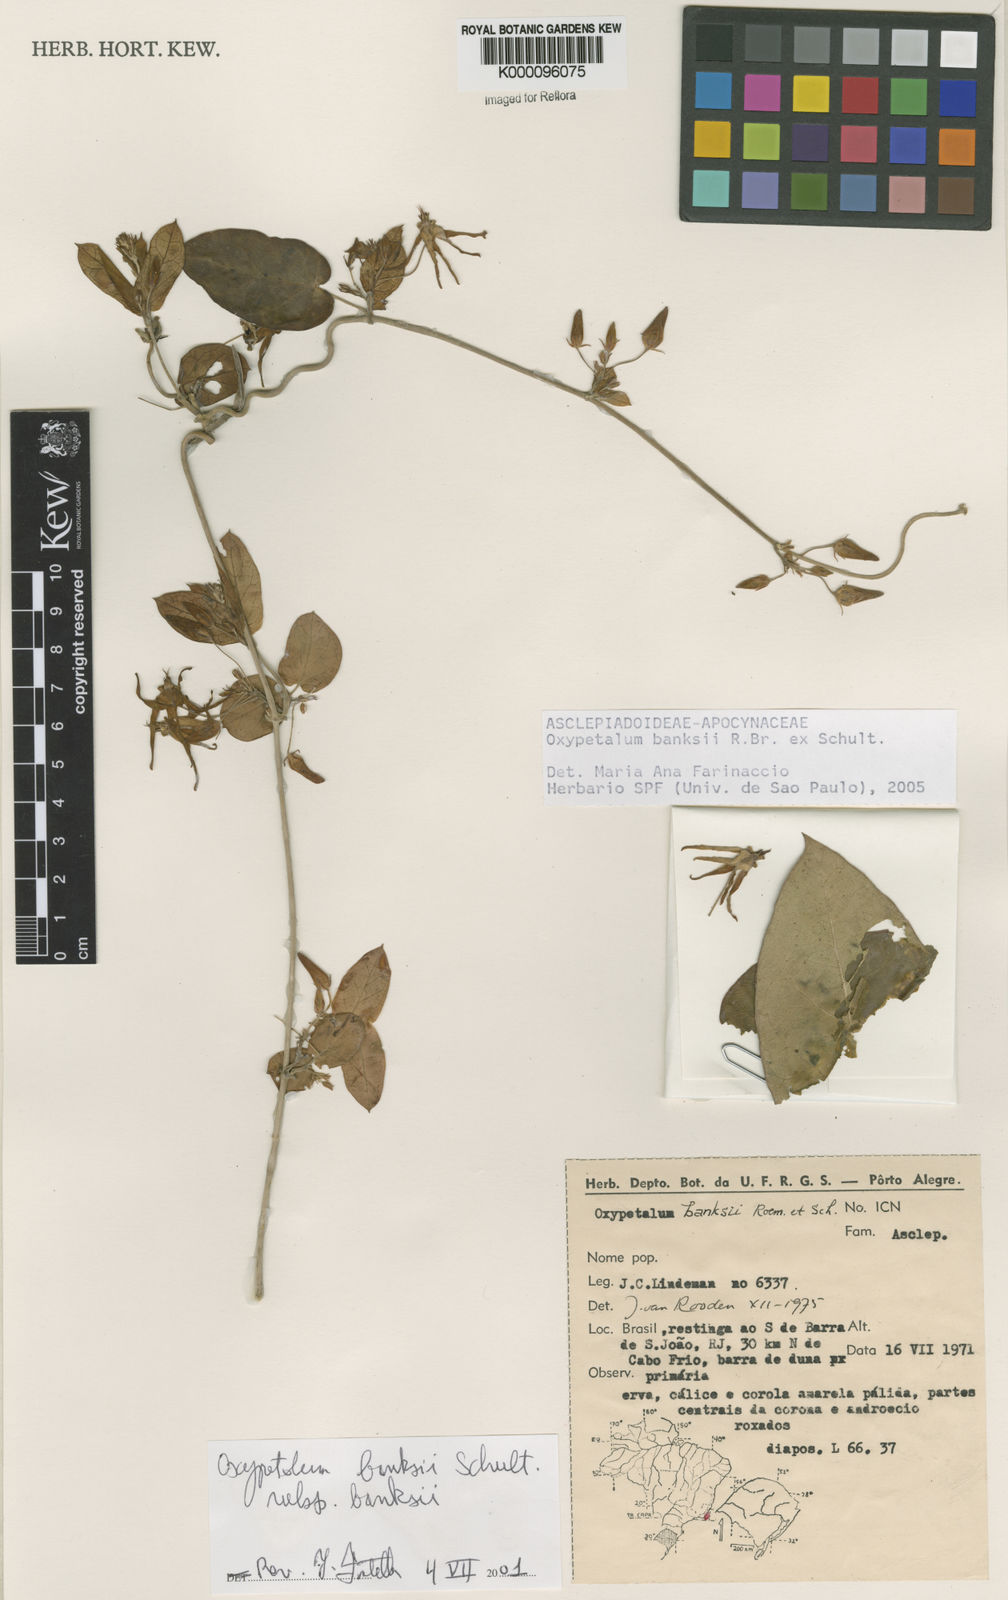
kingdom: Plantae
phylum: Tracheophyta
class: Magnoliopsida
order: Gentianales
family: Apocynaceae
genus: Oxypetalum
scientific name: Oxypetalum banksii
